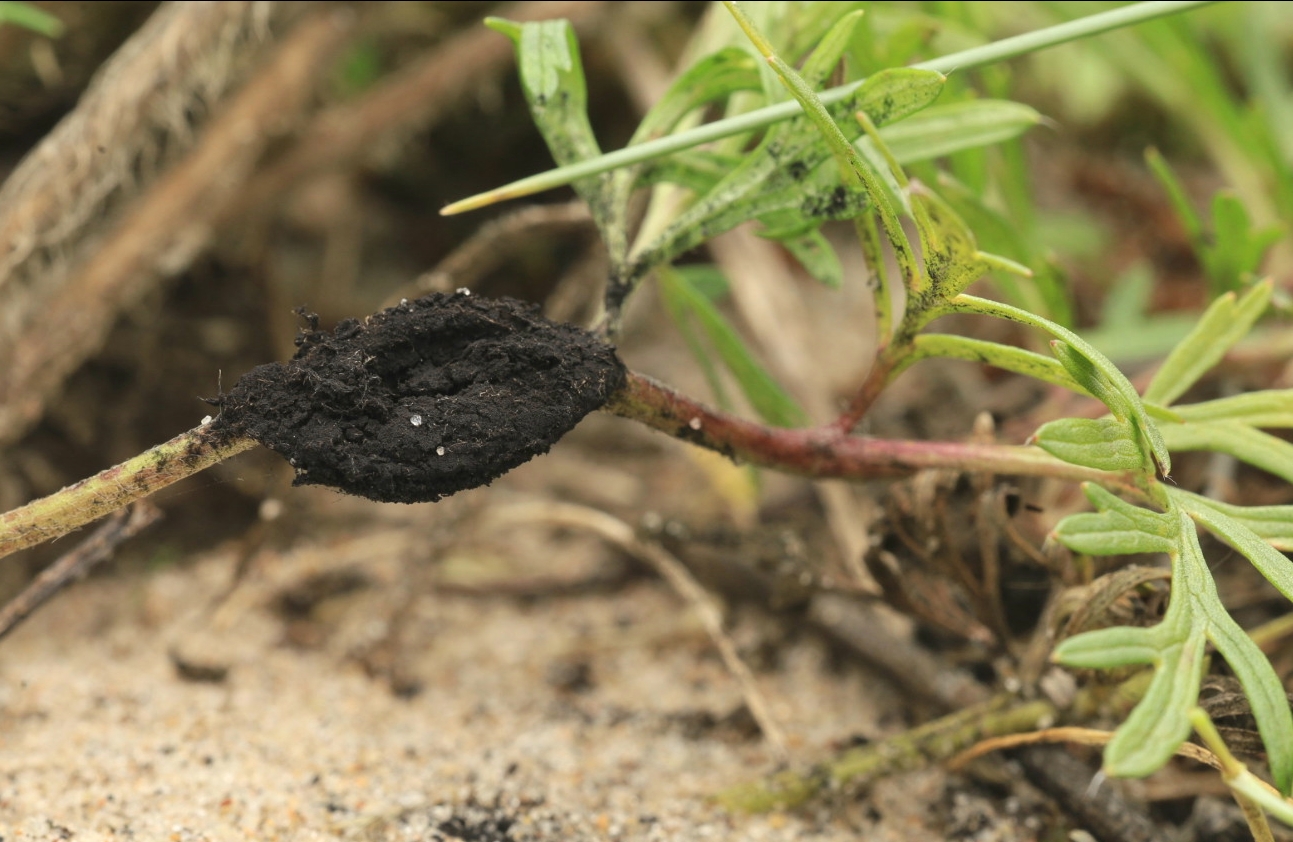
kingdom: Fungi
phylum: Basidiomycota
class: Ustilaginomycetes
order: Urocystidales
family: Urocystidaceae
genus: Urocystis
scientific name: Urocystis pulsatillae
